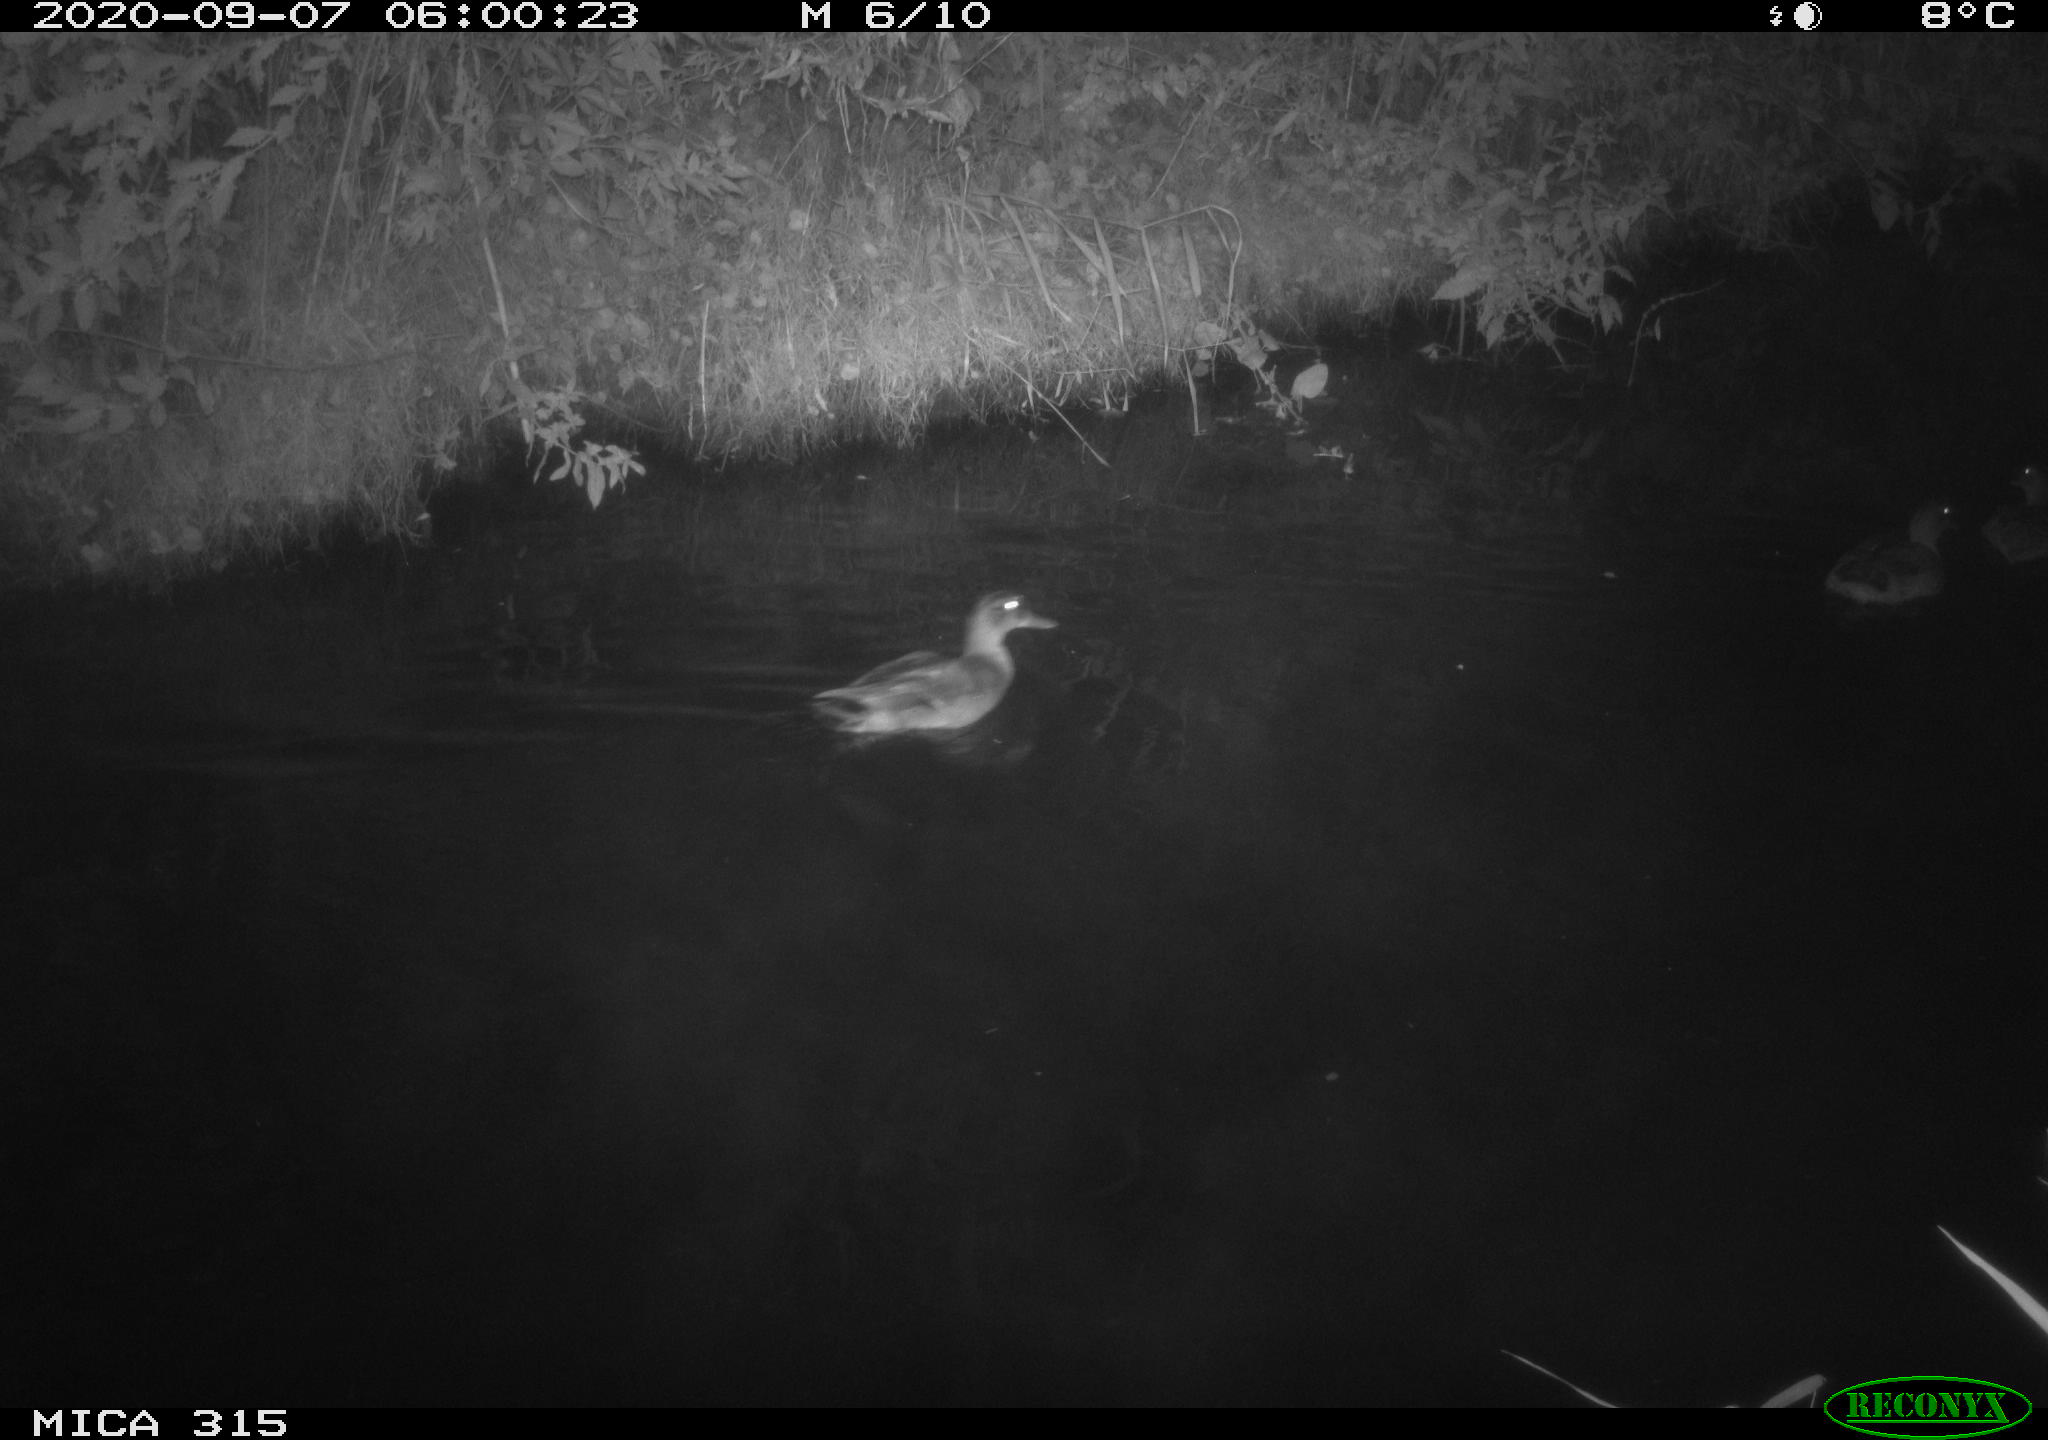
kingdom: Animalia
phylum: Chordata
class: Aves
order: Anseriformes
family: Anatidae
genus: Anas
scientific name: Anas platyrhynchos
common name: Mallard
